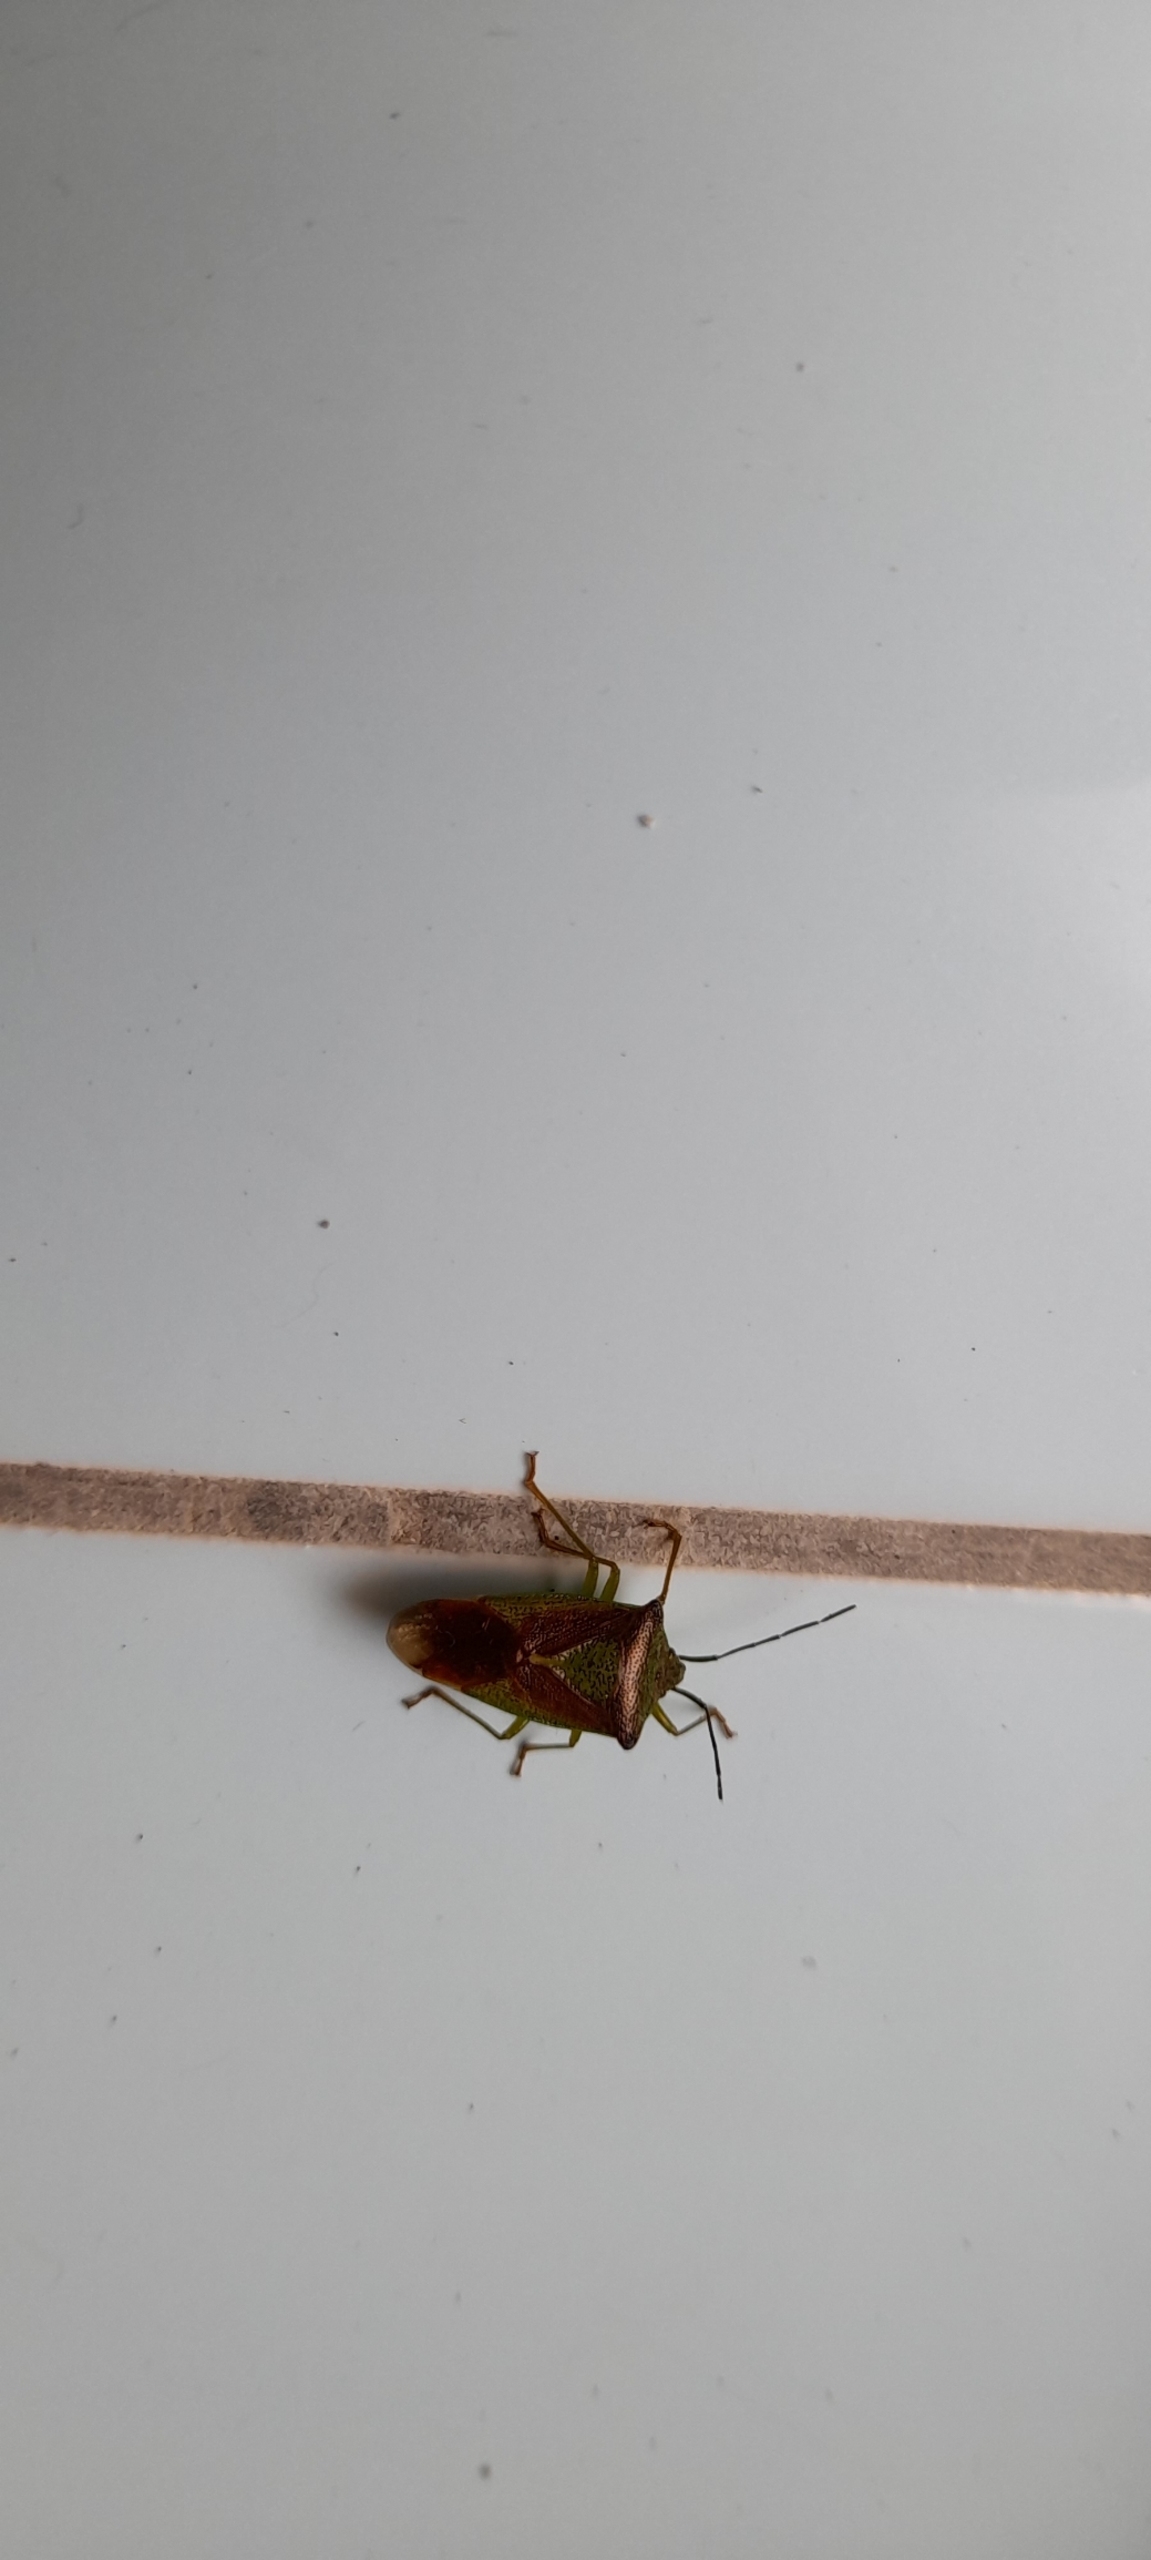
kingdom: Animalia
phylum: Arthropoda
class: Insecta
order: Hemiptera
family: Acanthosomatidae
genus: Acanthosoma
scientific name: Acanthosoma haemorrhoidale
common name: Stor løvtæge
